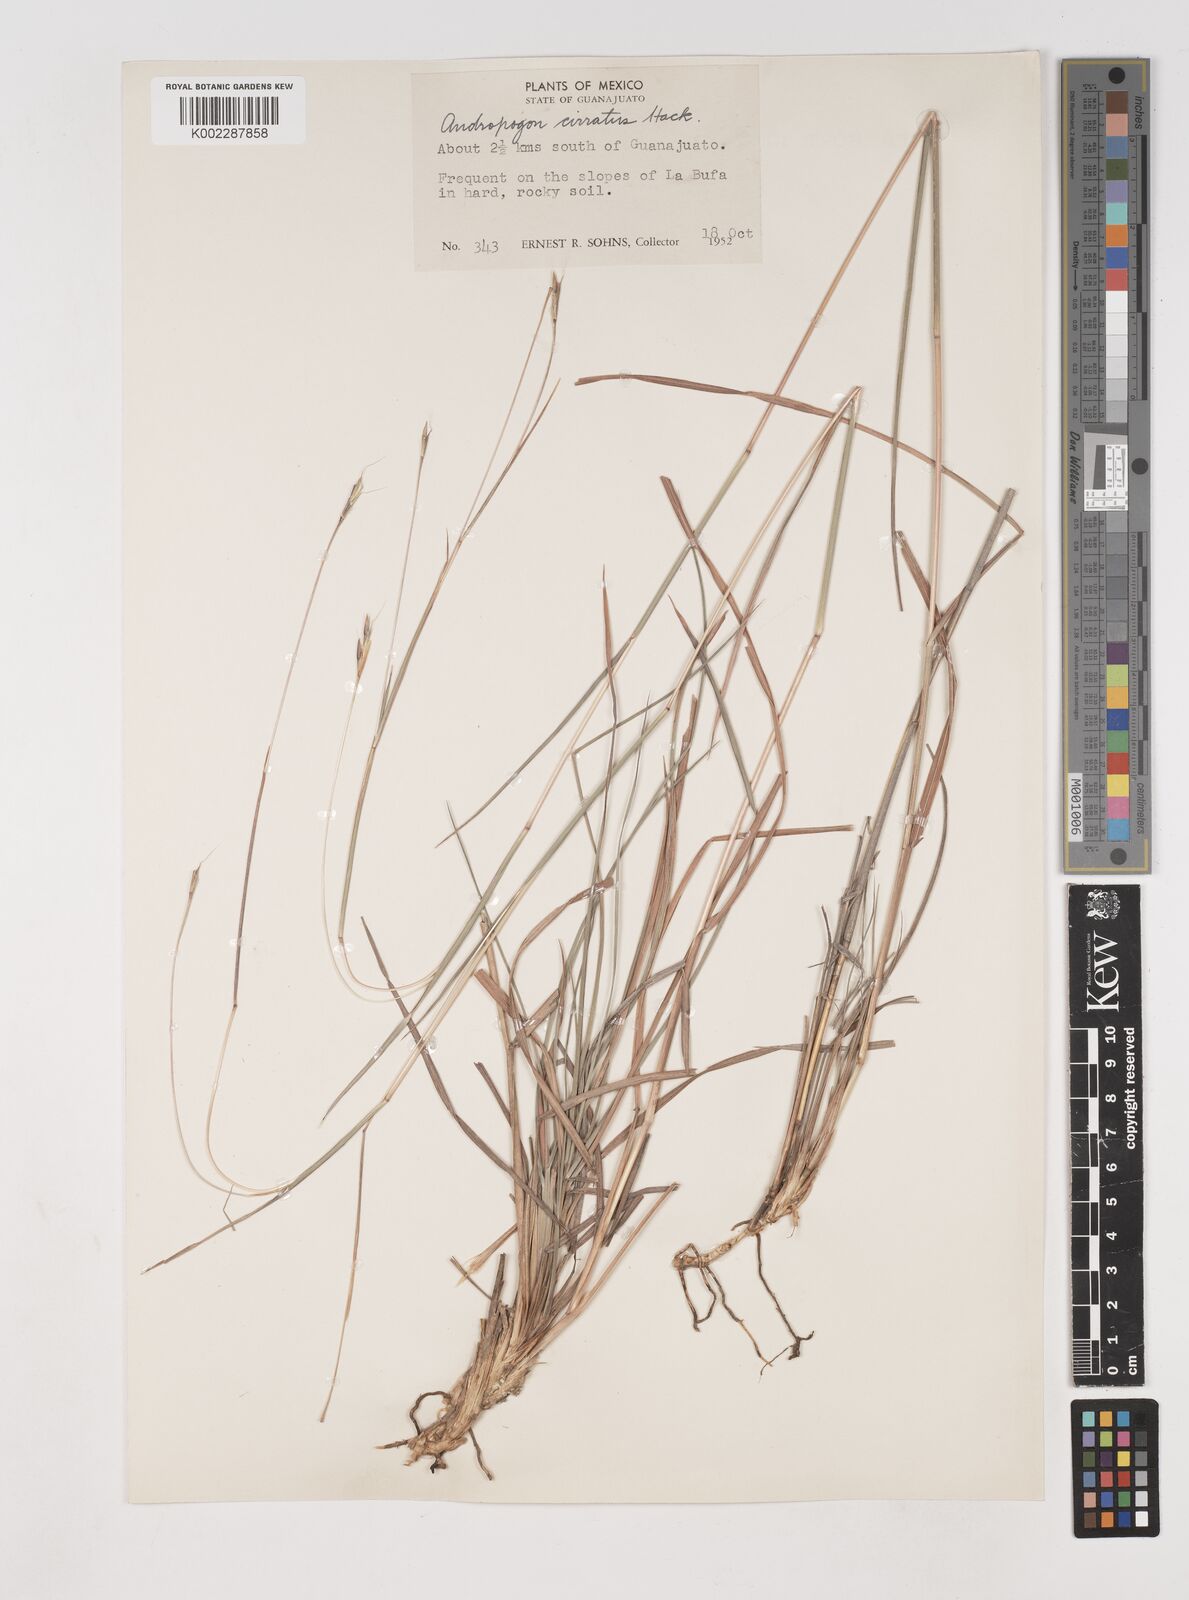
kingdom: Plantae
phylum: Tracheophyta
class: Liliopsida
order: Poales
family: Poaceae
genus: Andropogon
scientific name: Andropogon cirratus
